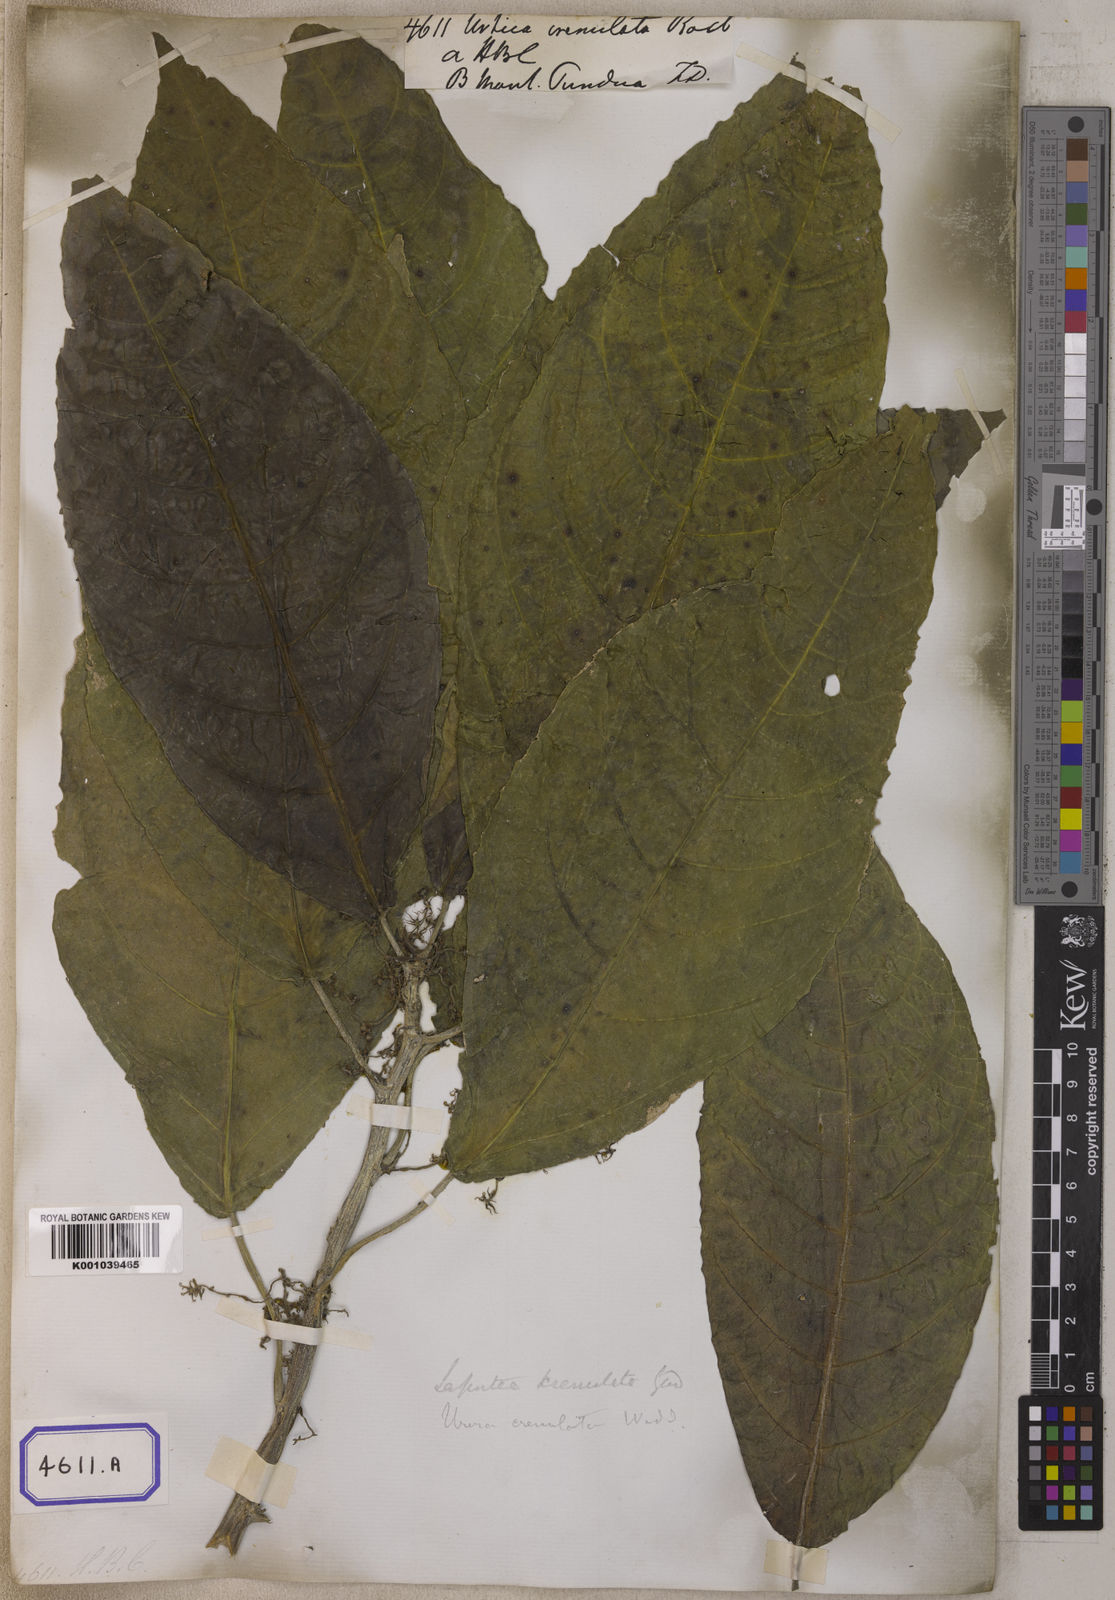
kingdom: Plantae
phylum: Tracheophyta
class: Magnoliopsida
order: Rosales
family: Urticaceae
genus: Dendrocnide
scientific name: Dendrocnide sinuata
